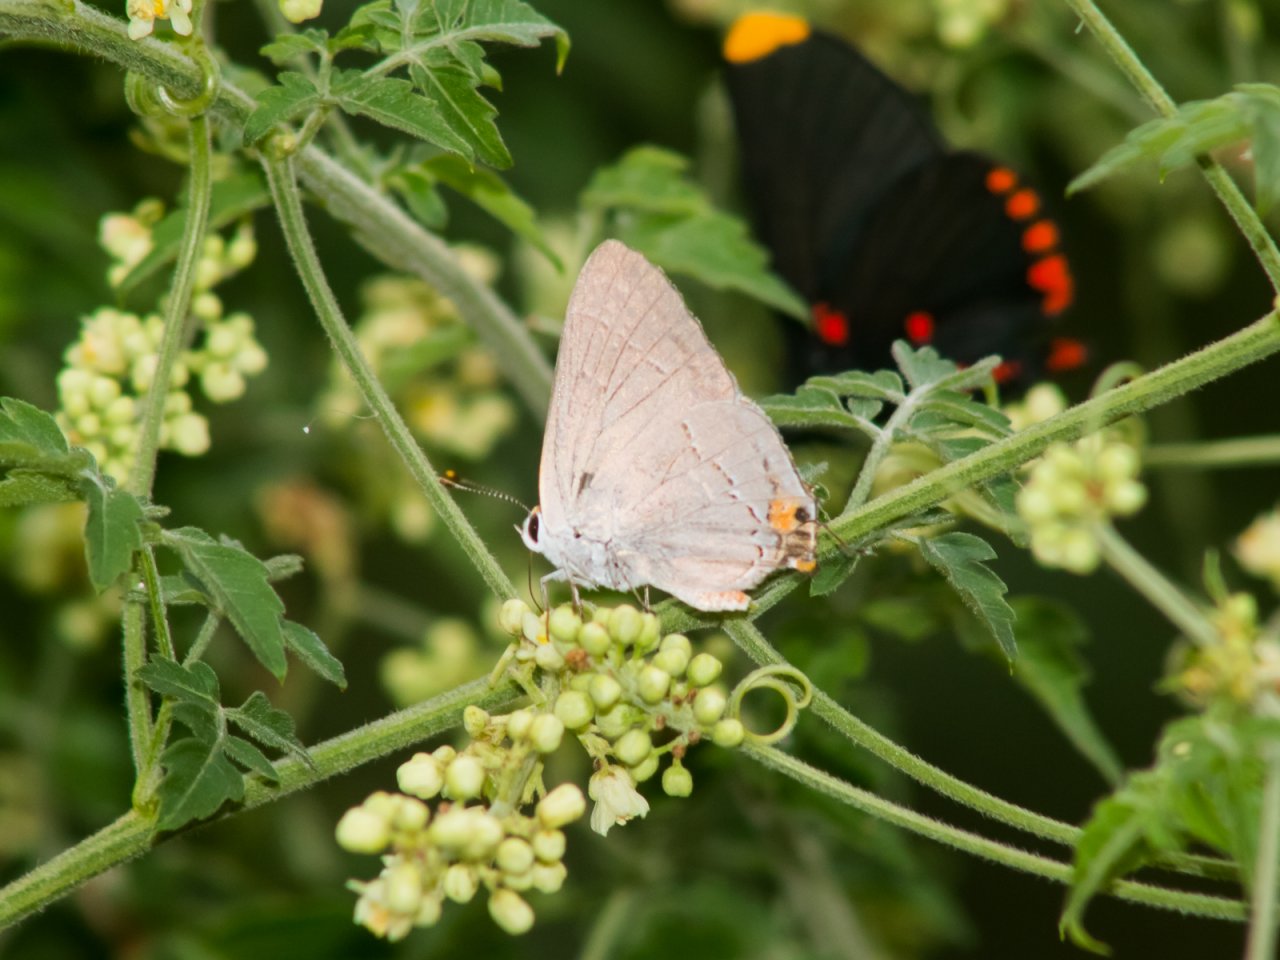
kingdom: Animalia
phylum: Arthropoda
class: Insecta
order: Lepidoptera
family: Lycaenidae
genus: Strymon
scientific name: Strymon melinus
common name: Gray Hairstreak
